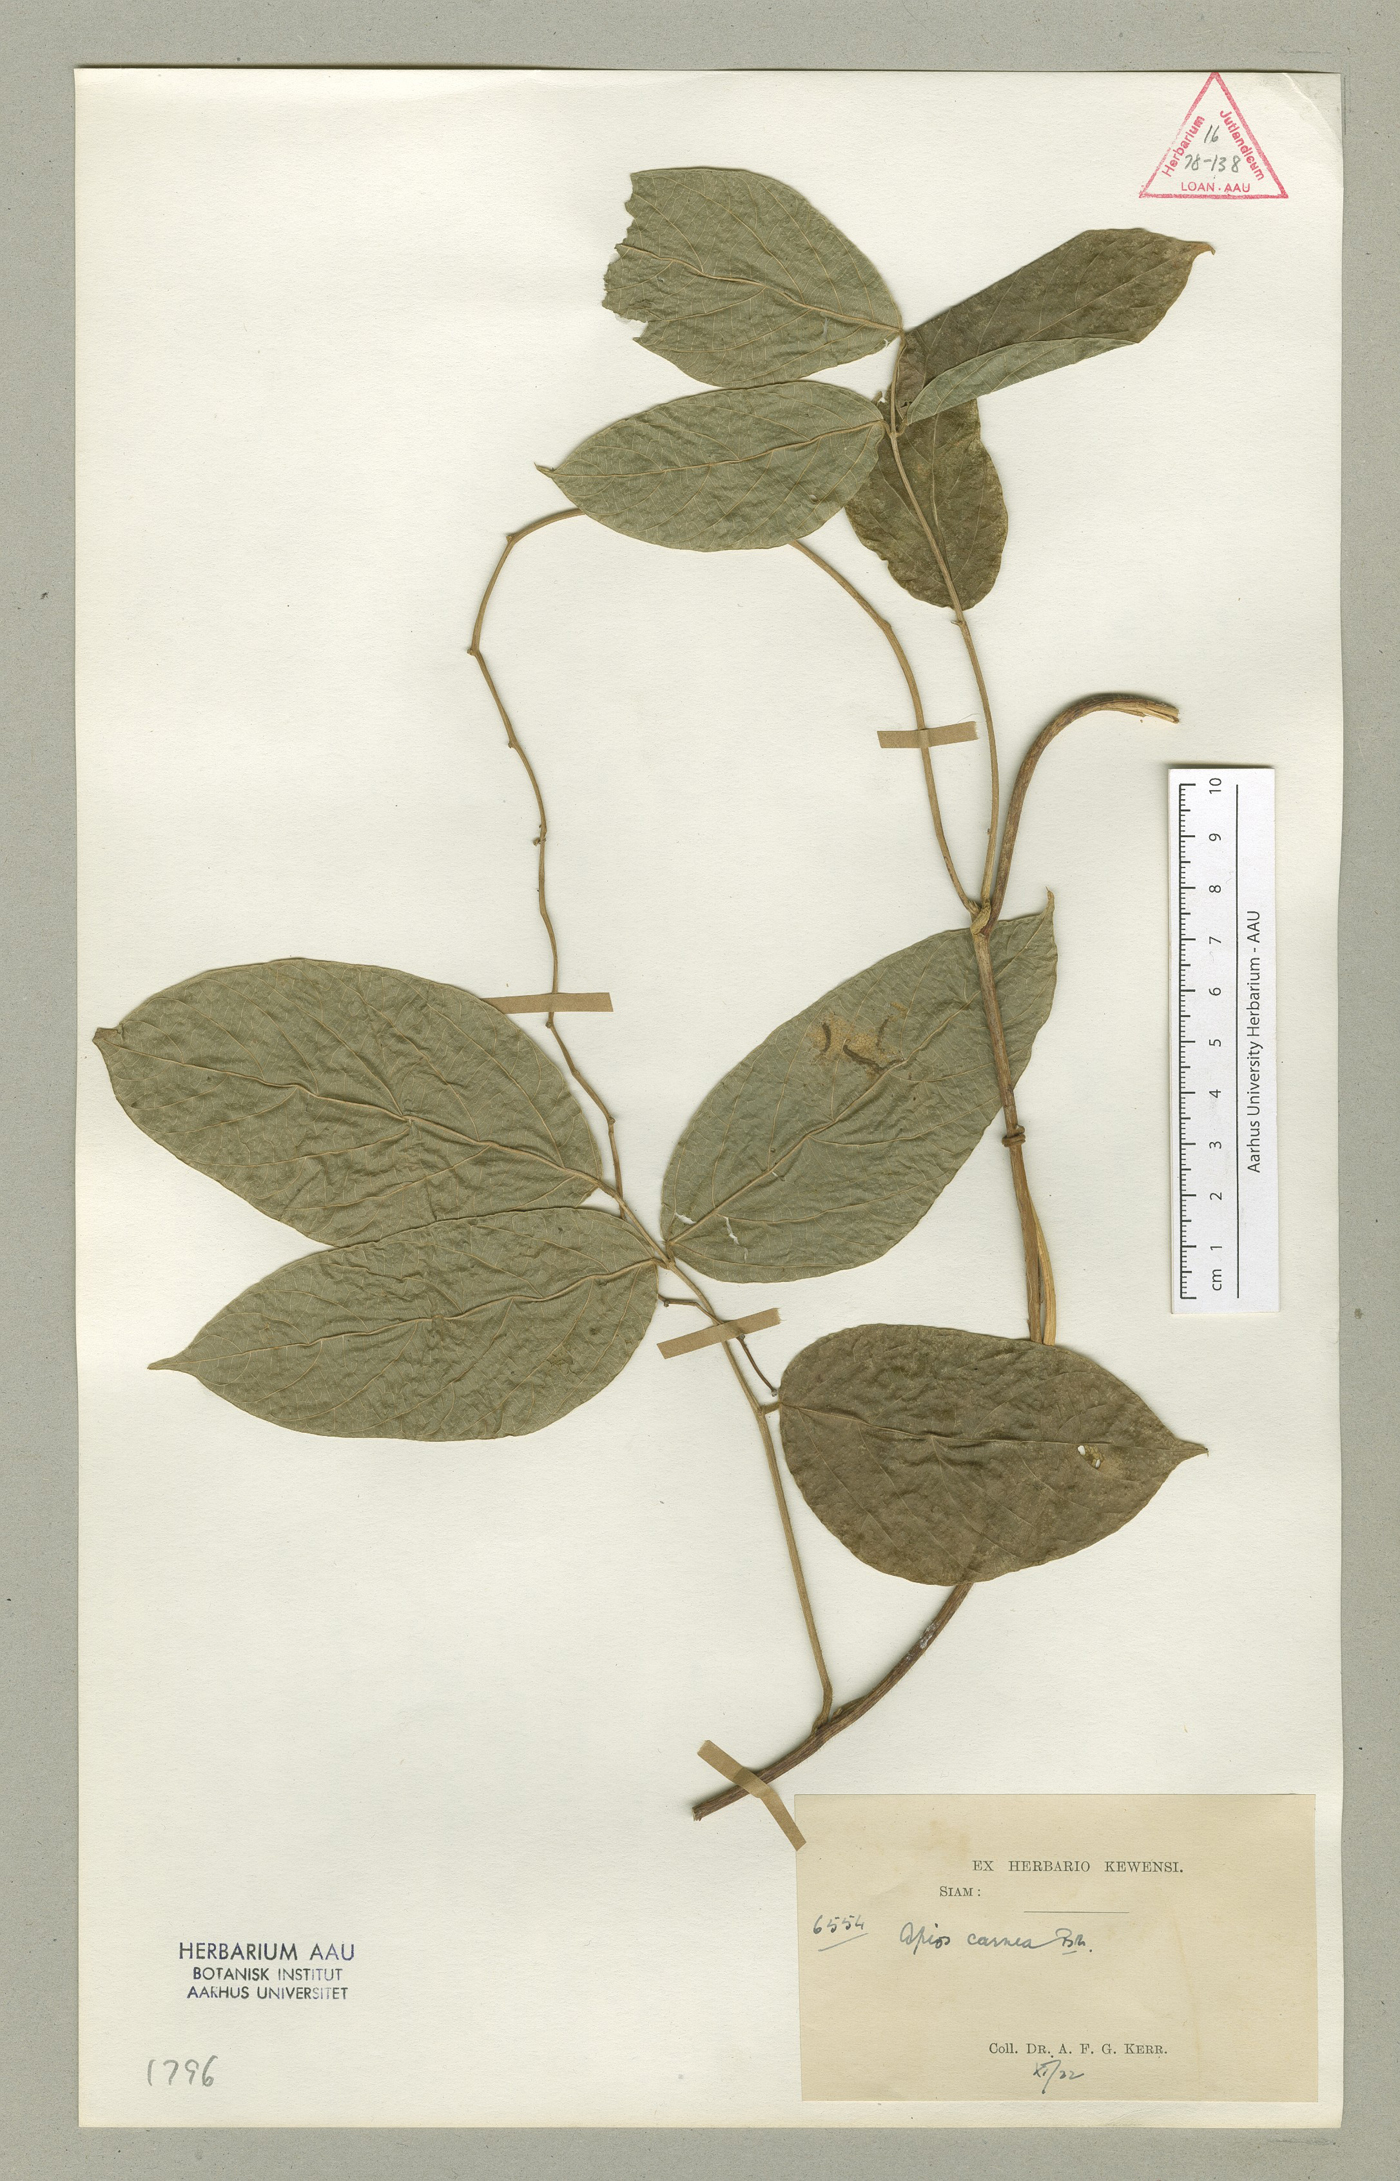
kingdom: Plantae
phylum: Tracheophyta
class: Magnoliopsida
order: Fabales
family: Fabaceae
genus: Apios
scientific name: Apios carnea
